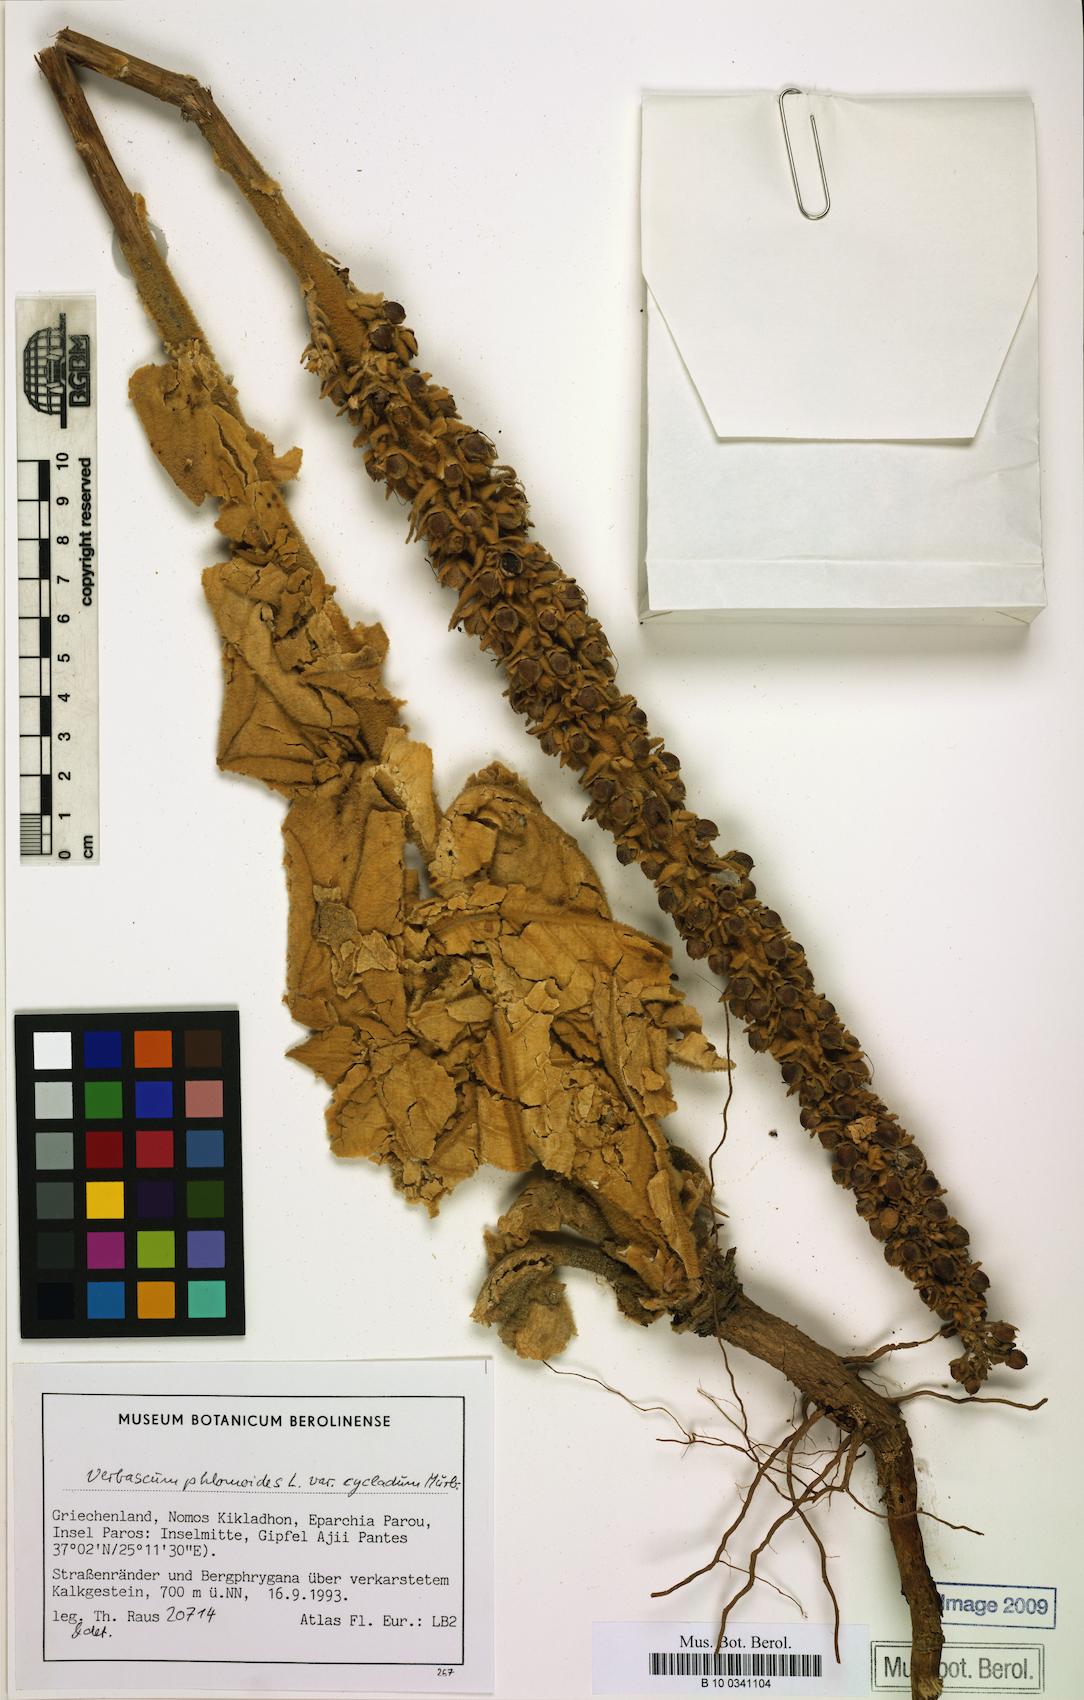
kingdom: Plantae
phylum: Tracheophyta
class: Magnoliopsida
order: Lamiales
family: Scrophulariaceae
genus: Verbascum
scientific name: Verbascum phlomoides
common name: Orange mullein
